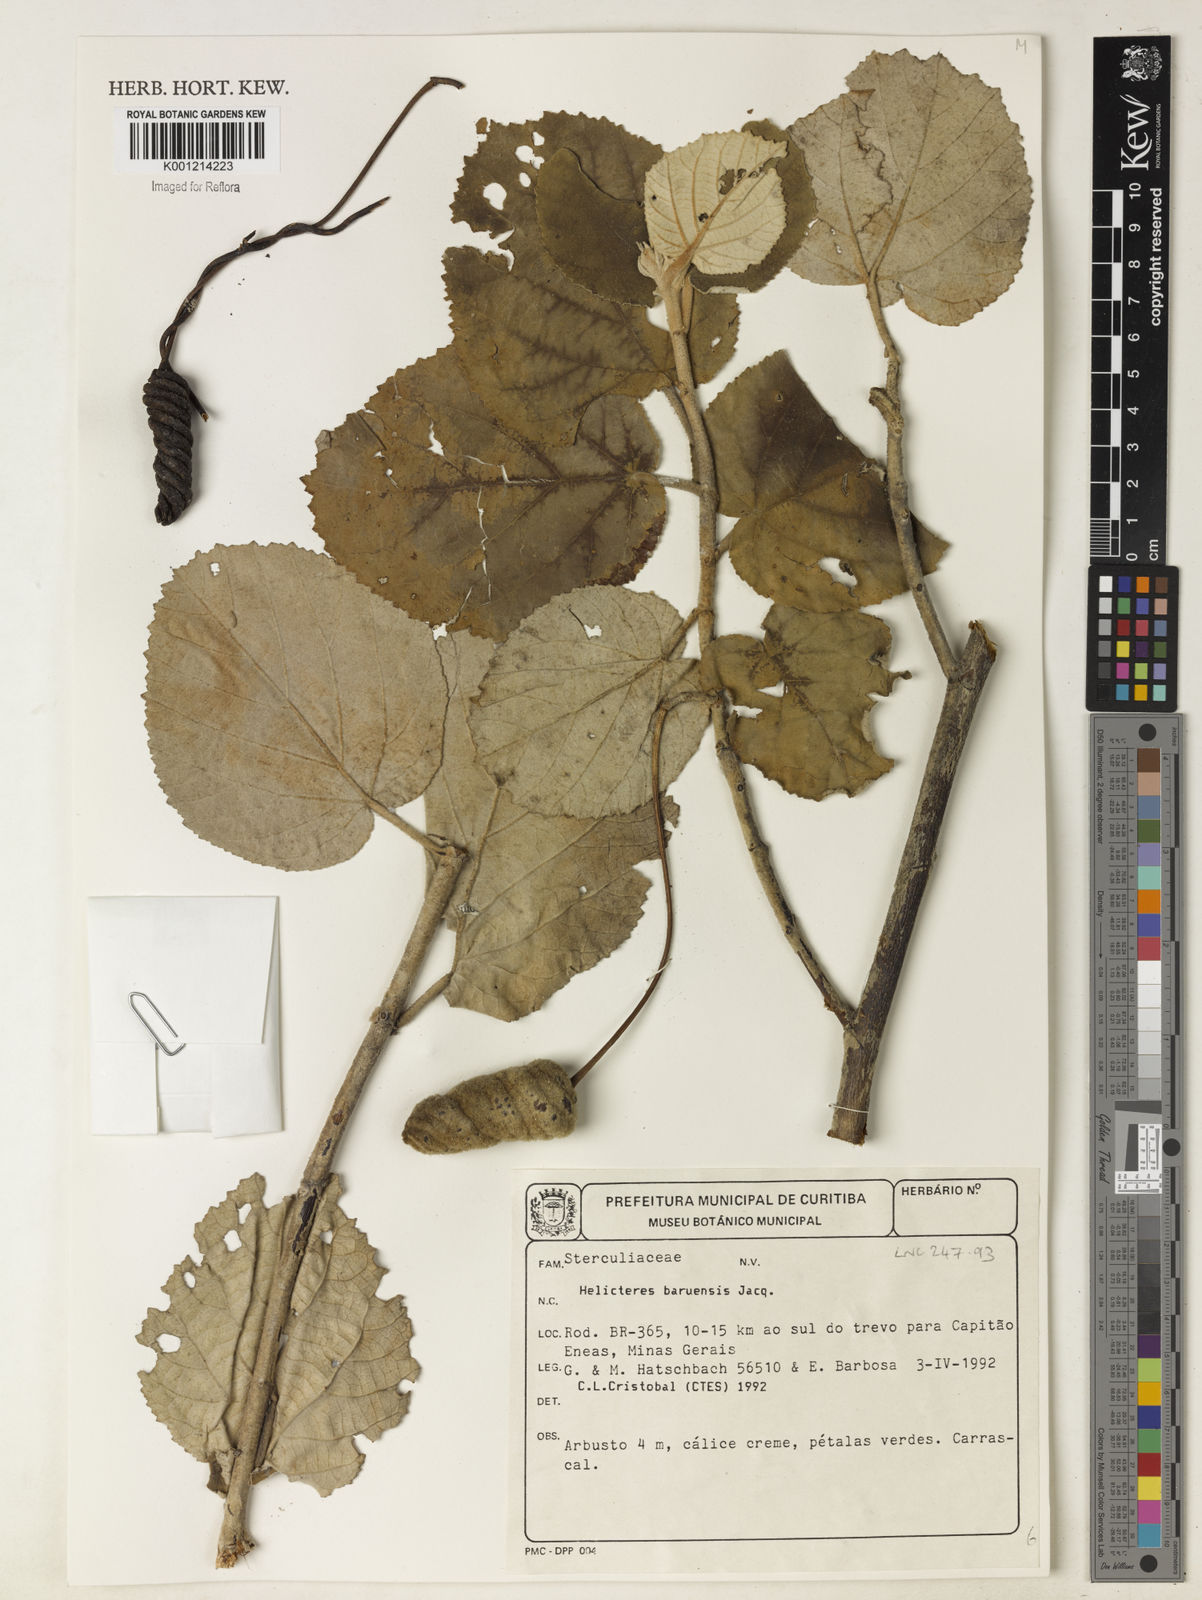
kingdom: Plantae
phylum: Tracheophyta
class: Magnoliopsida
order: Malvales
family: Malvaceae
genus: Helicteres
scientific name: Helicteres baruensis
